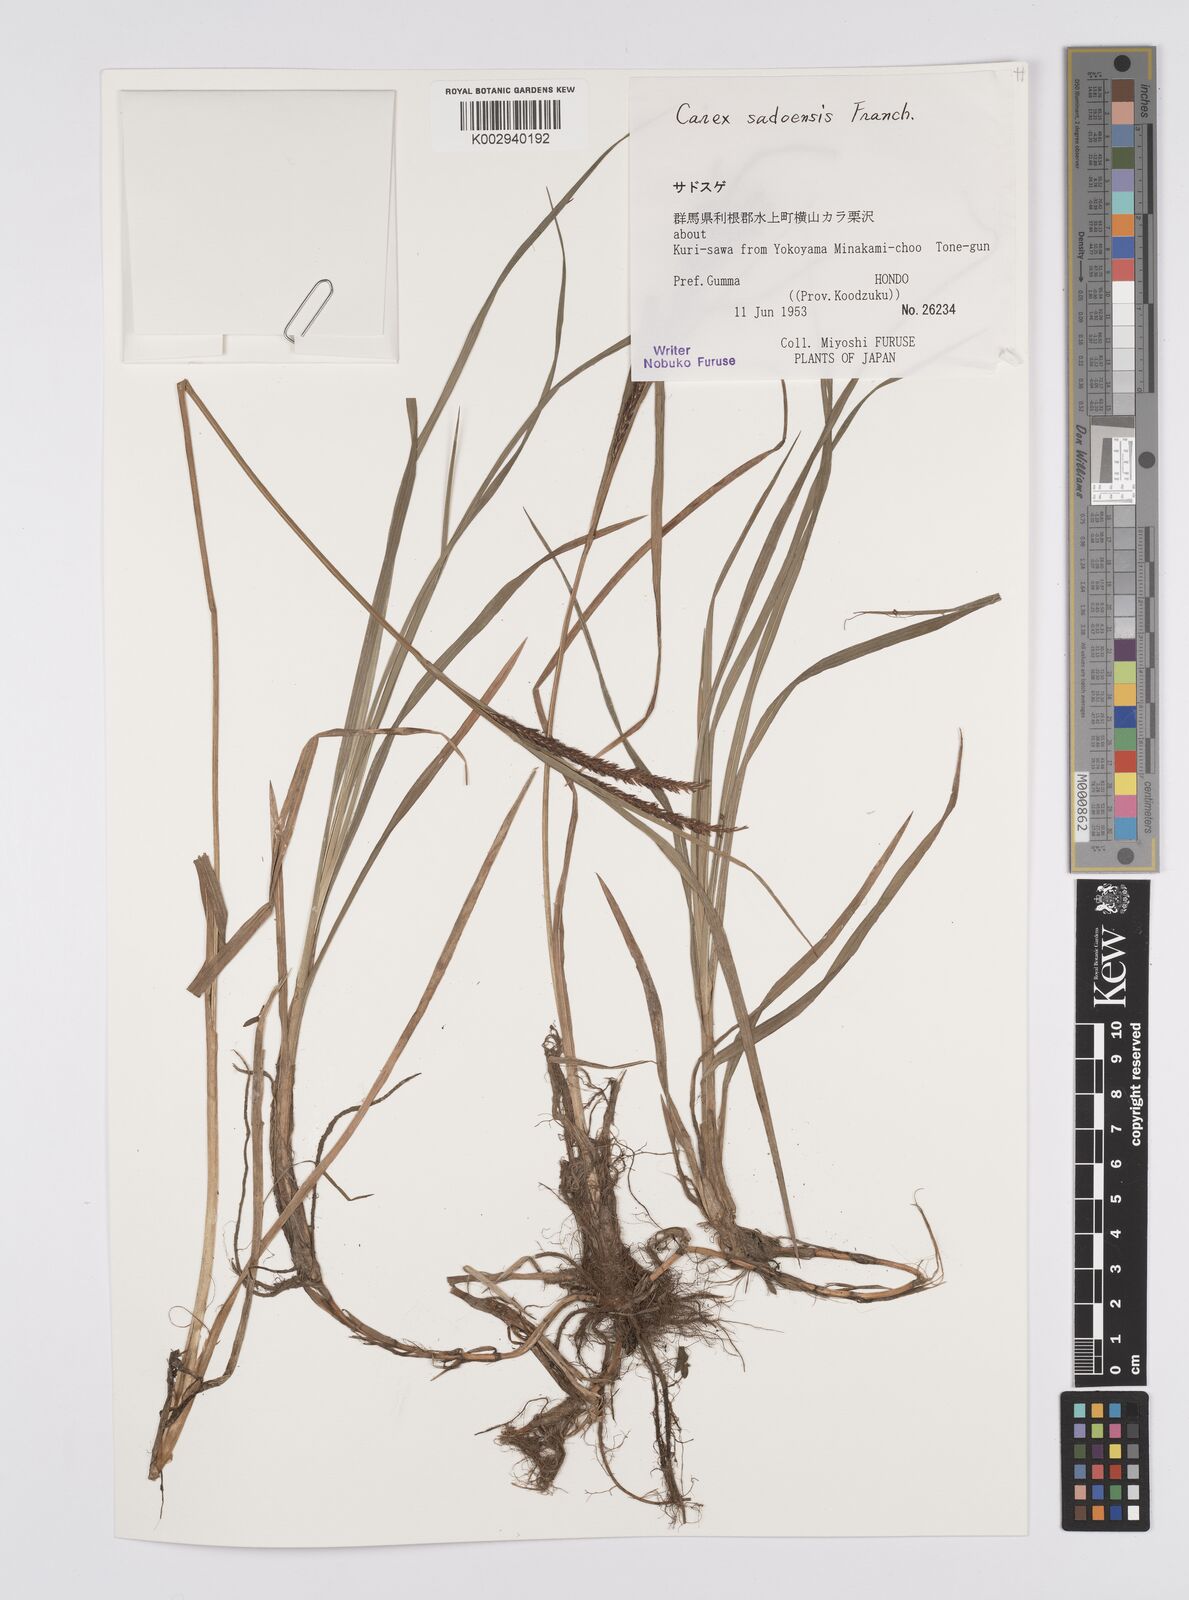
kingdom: Plantae
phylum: Tracheophyta
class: Liliopsida
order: Poales
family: Cyperaceae
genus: Carex
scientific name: Carex sadoensis
